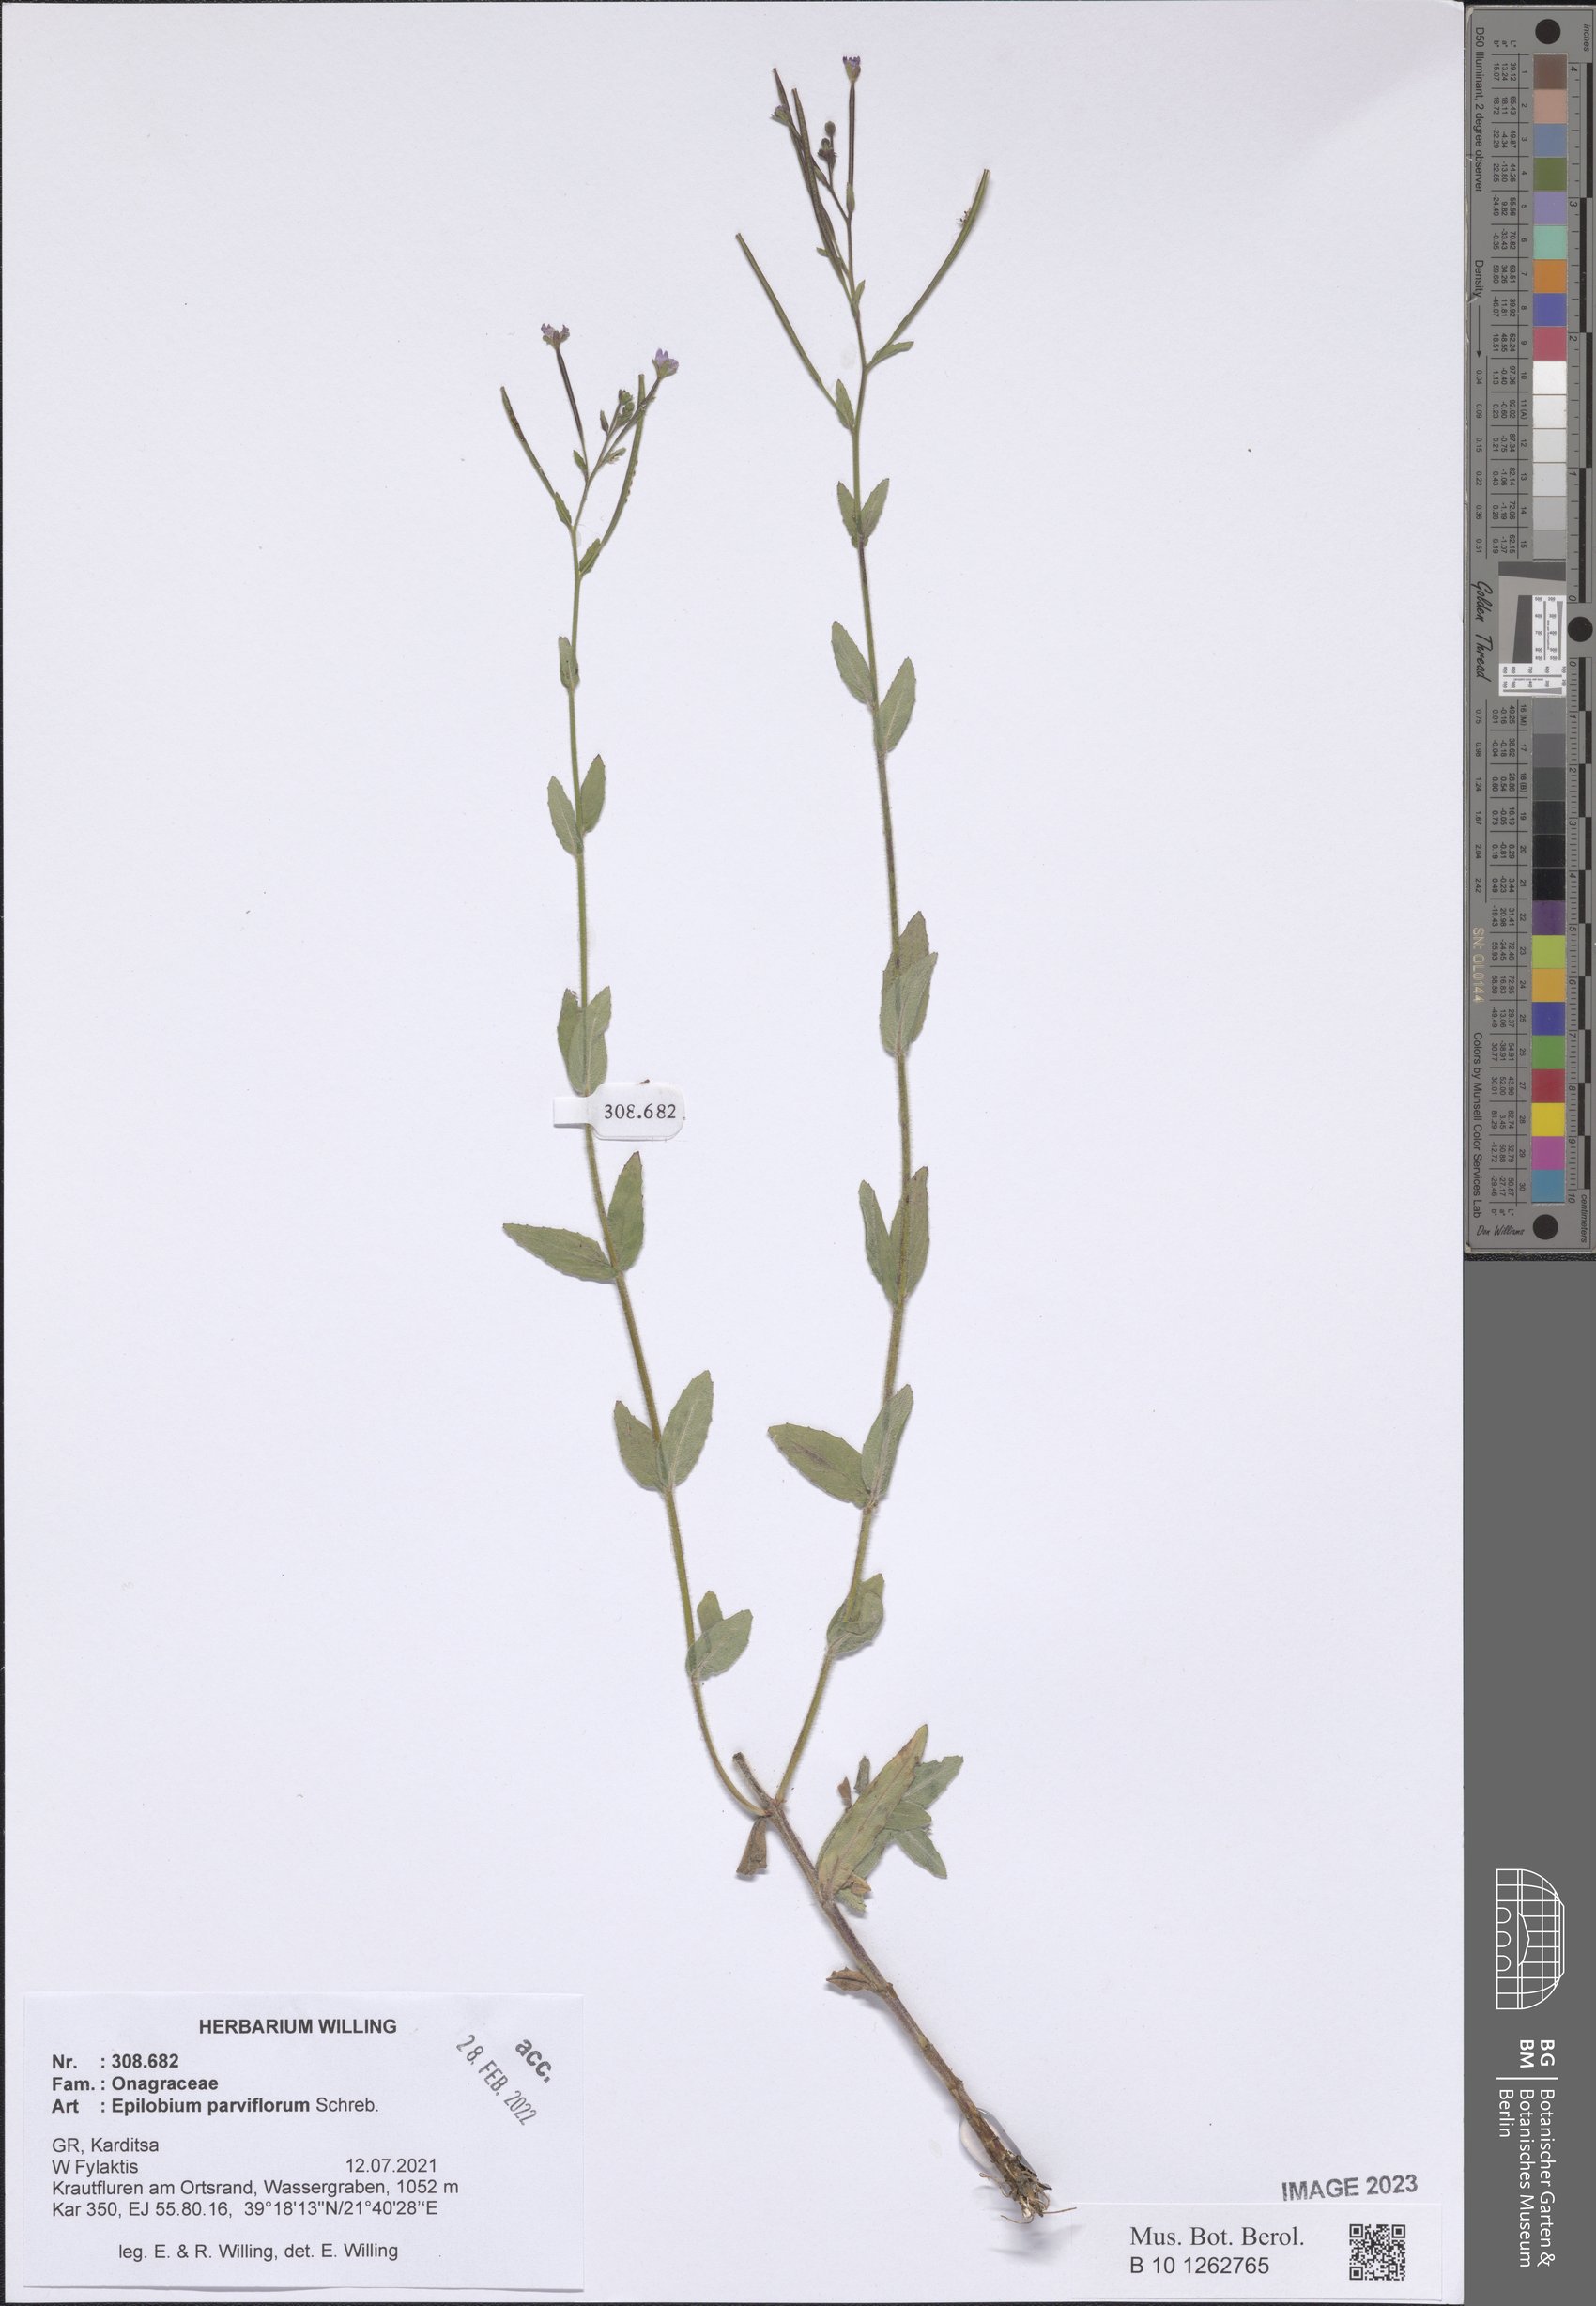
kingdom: Plantae
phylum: Tracheophyta
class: Magnoliopsida
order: Myrtales
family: Onagraceae
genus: Epilobium
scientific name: Epilobium parviflorum
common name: Hoary willowherb
